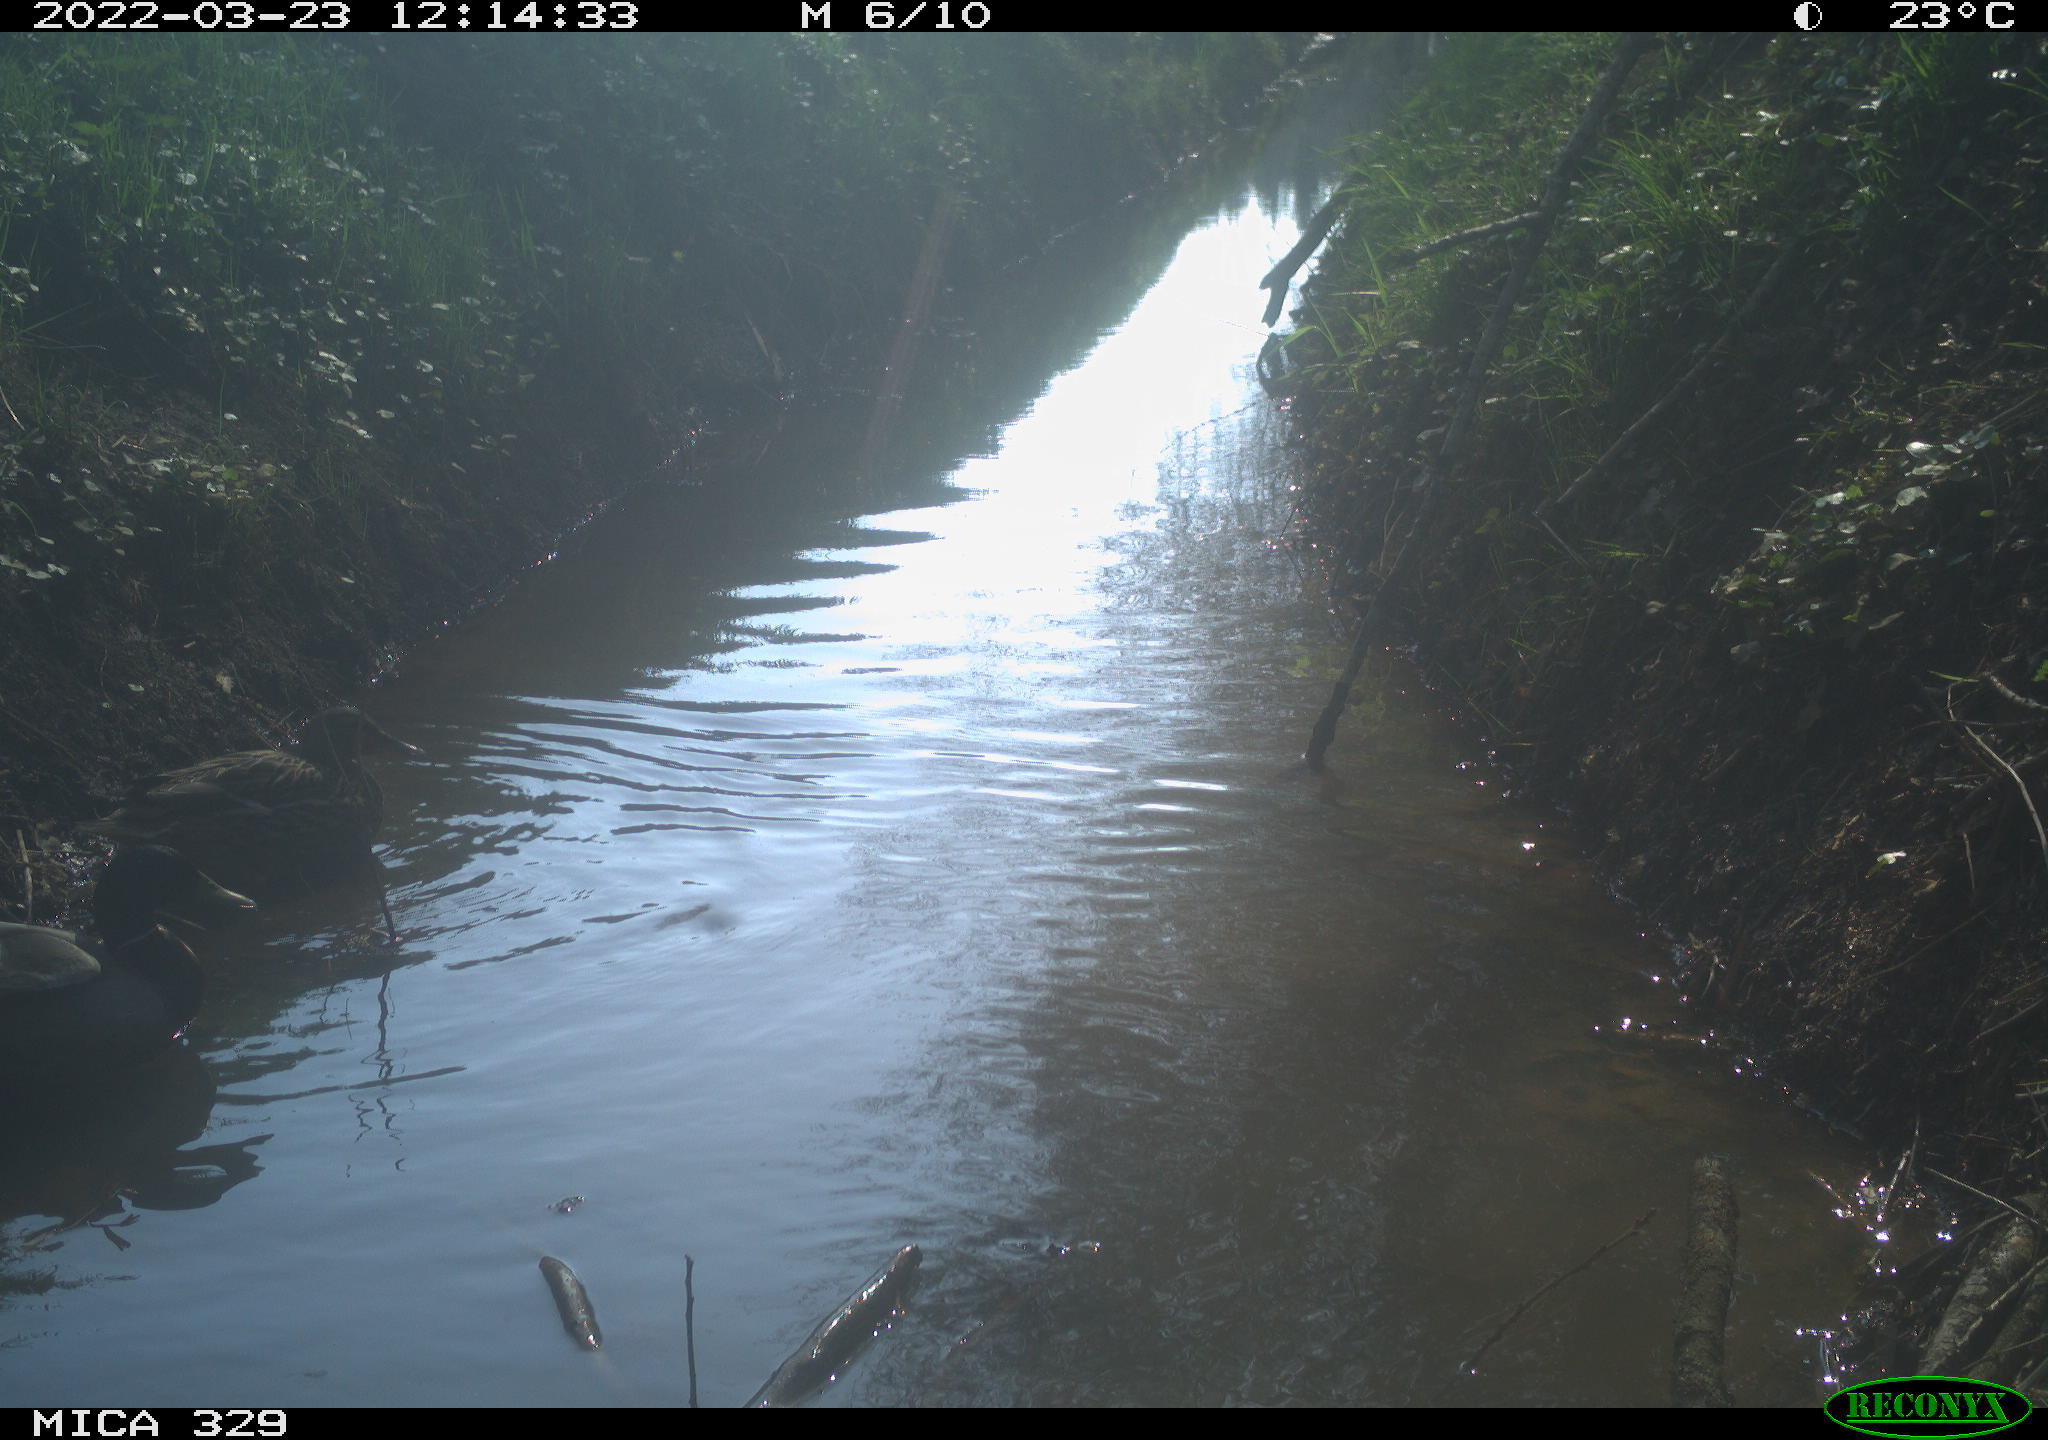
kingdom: Animalia
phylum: Chordata
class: Aves
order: Anseriformes
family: Anatidae
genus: Anas
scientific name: Anas platyrhynchos
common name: Mallard
